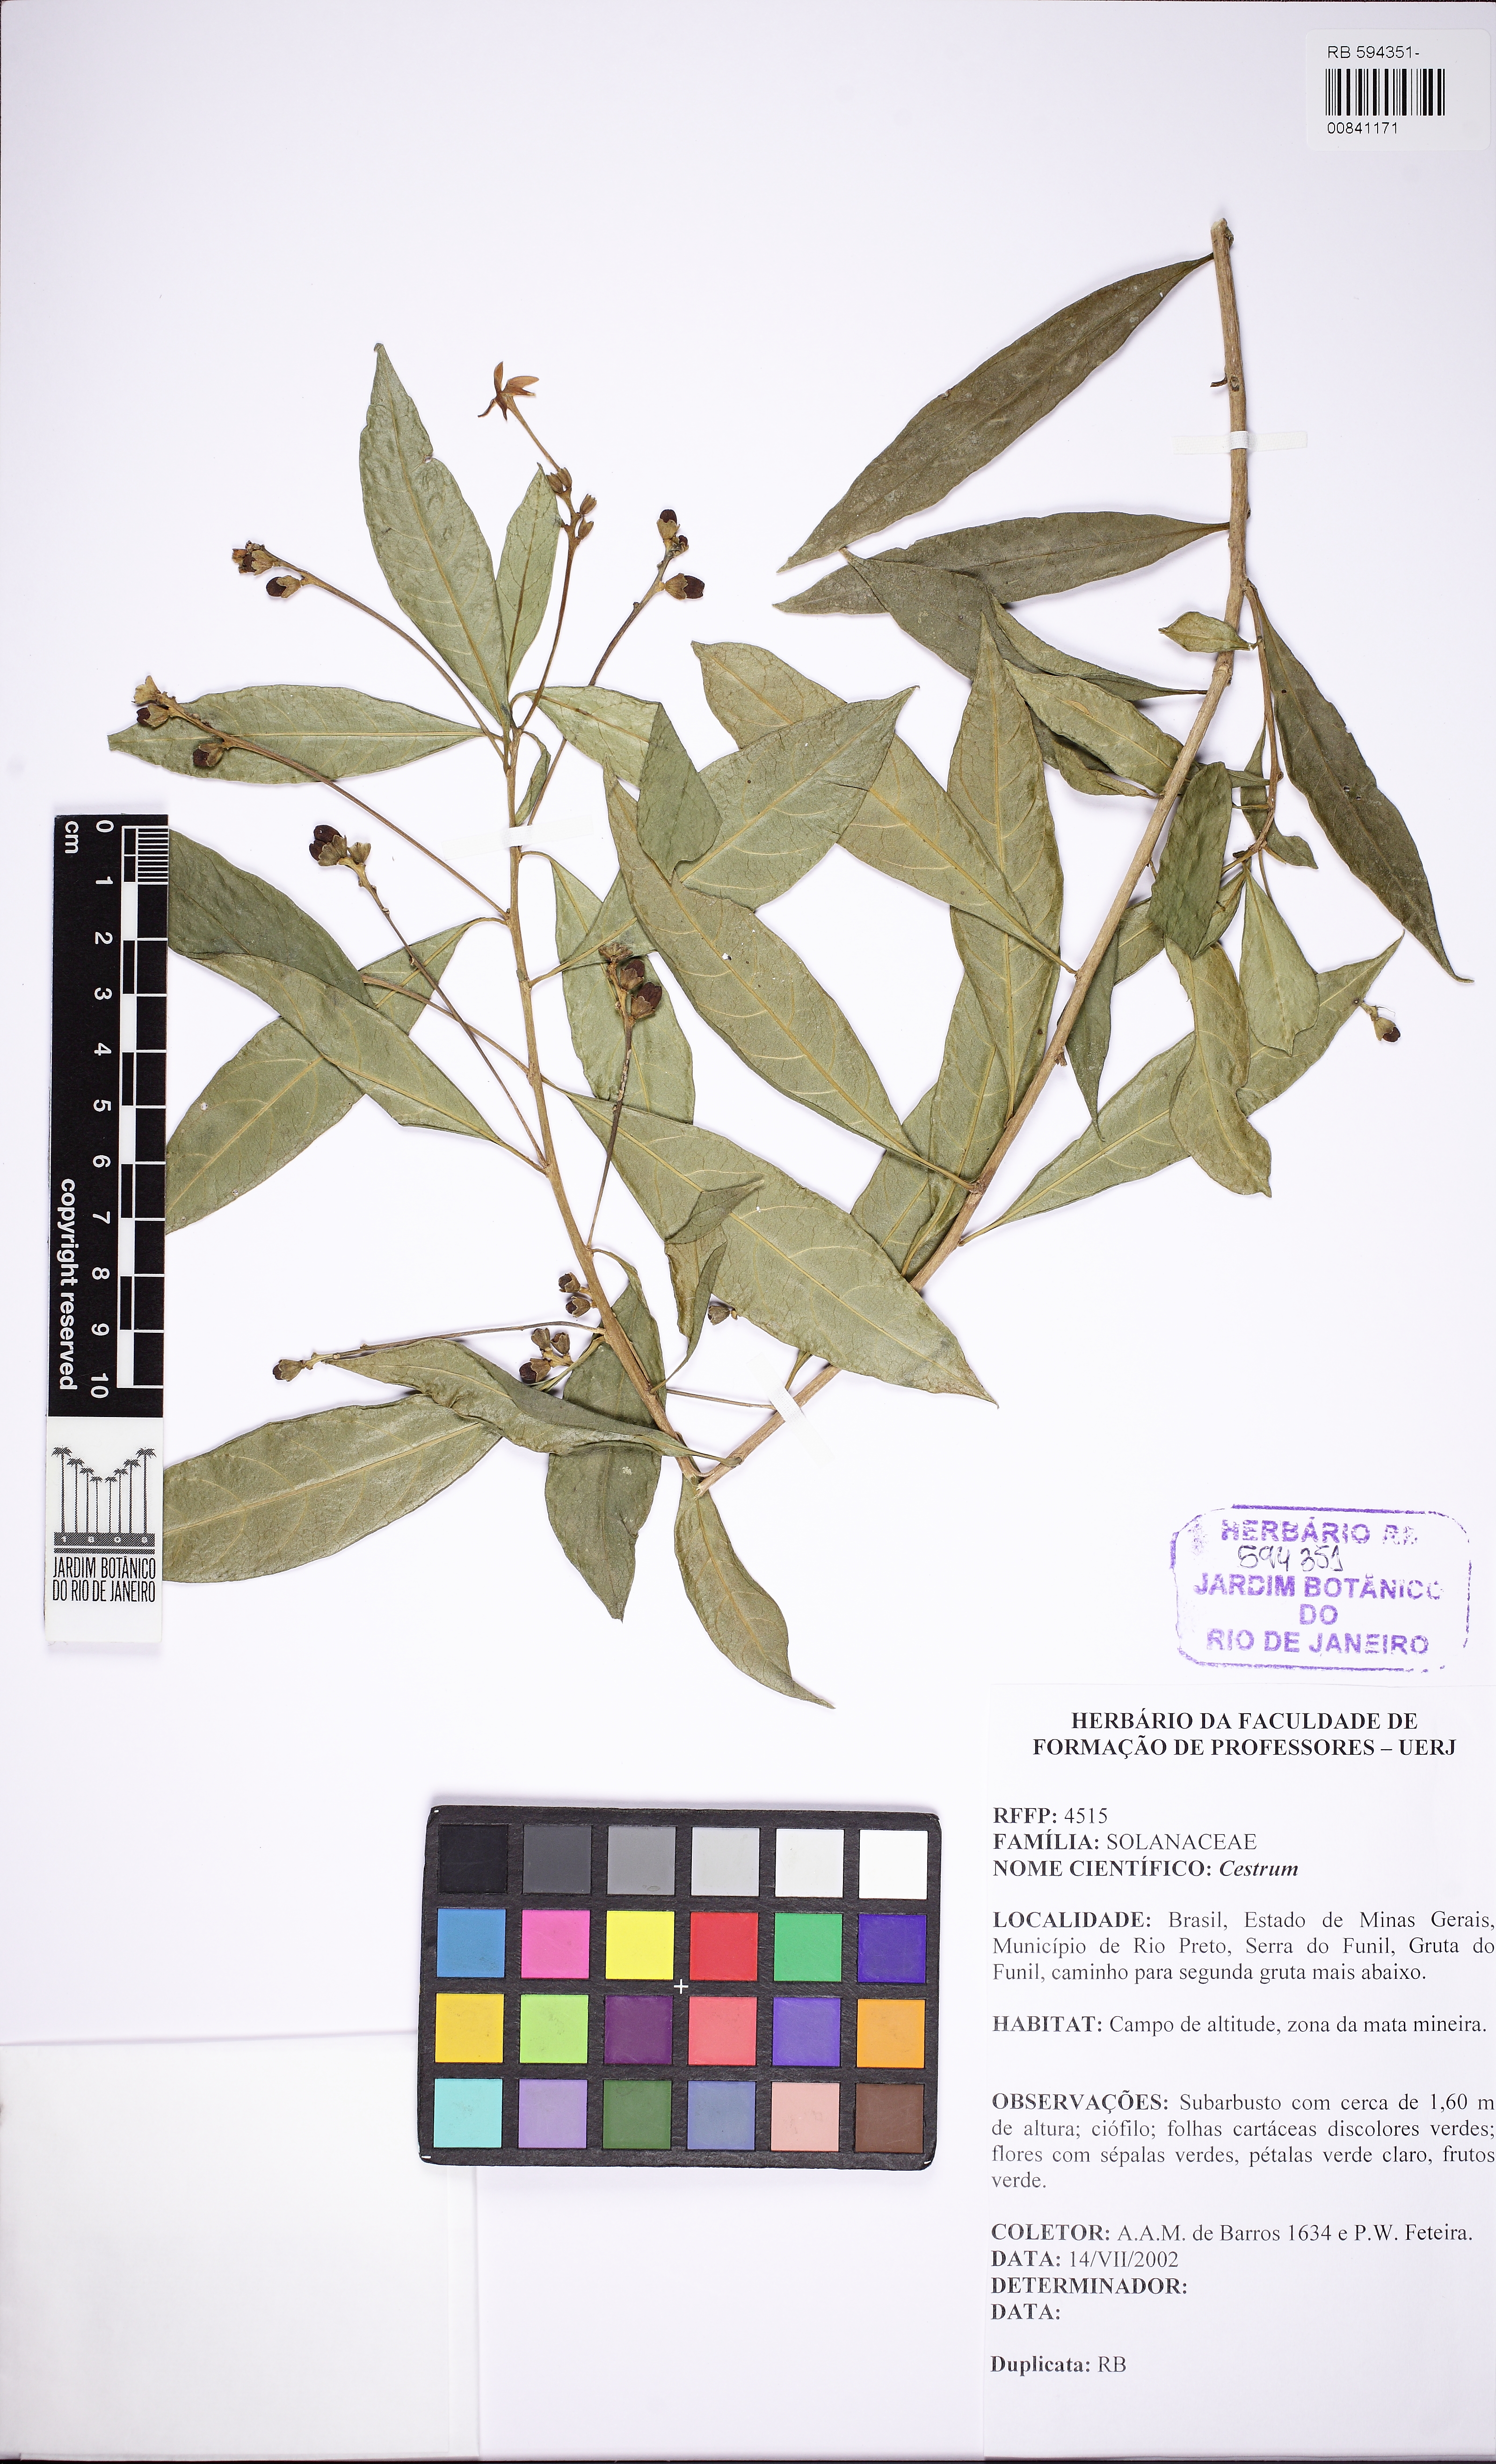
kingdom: Plantae
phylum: Tracheophyta
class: Magnoliopsida
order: Solanales
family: Solanaceae
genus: Cestrum
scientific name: Cestrum
